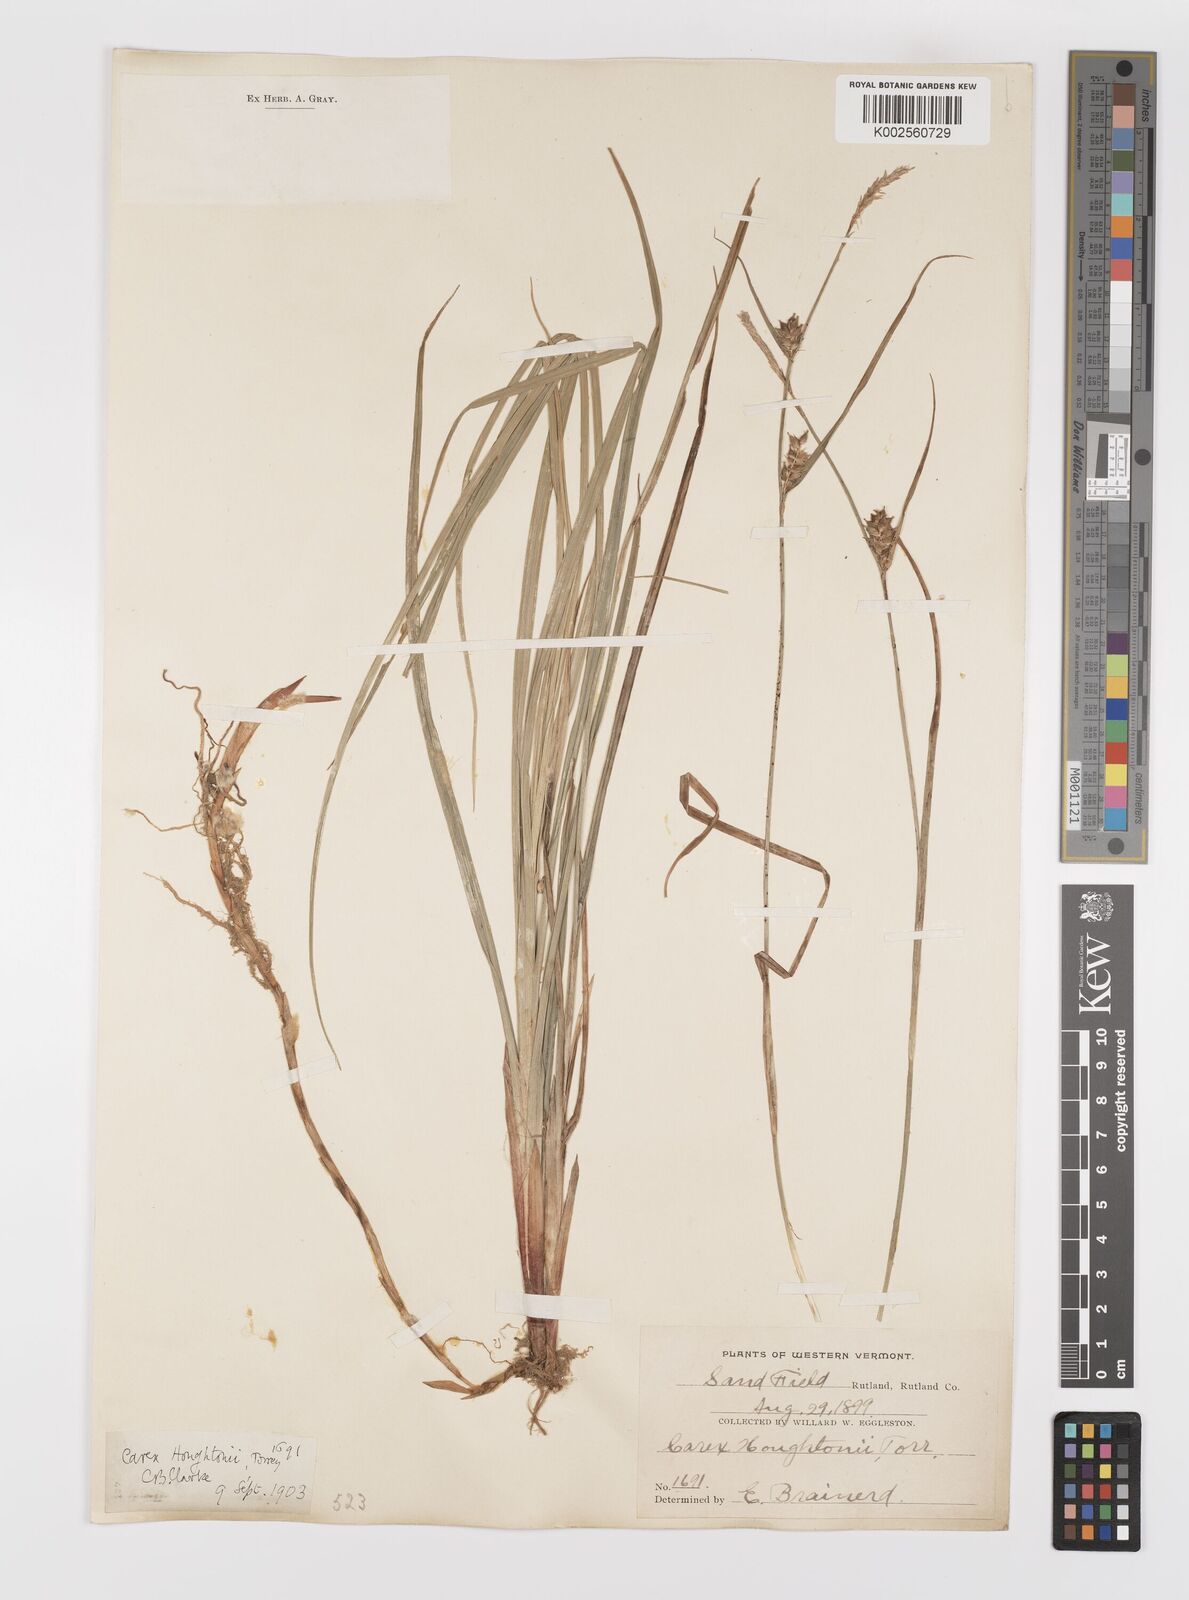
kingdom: Plantae
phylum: Tracheophyta
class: Liliopsida
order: Poales
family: Cyperaceae
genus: Carex
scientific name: Carex houghtoniana
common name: Houghton's sedge
